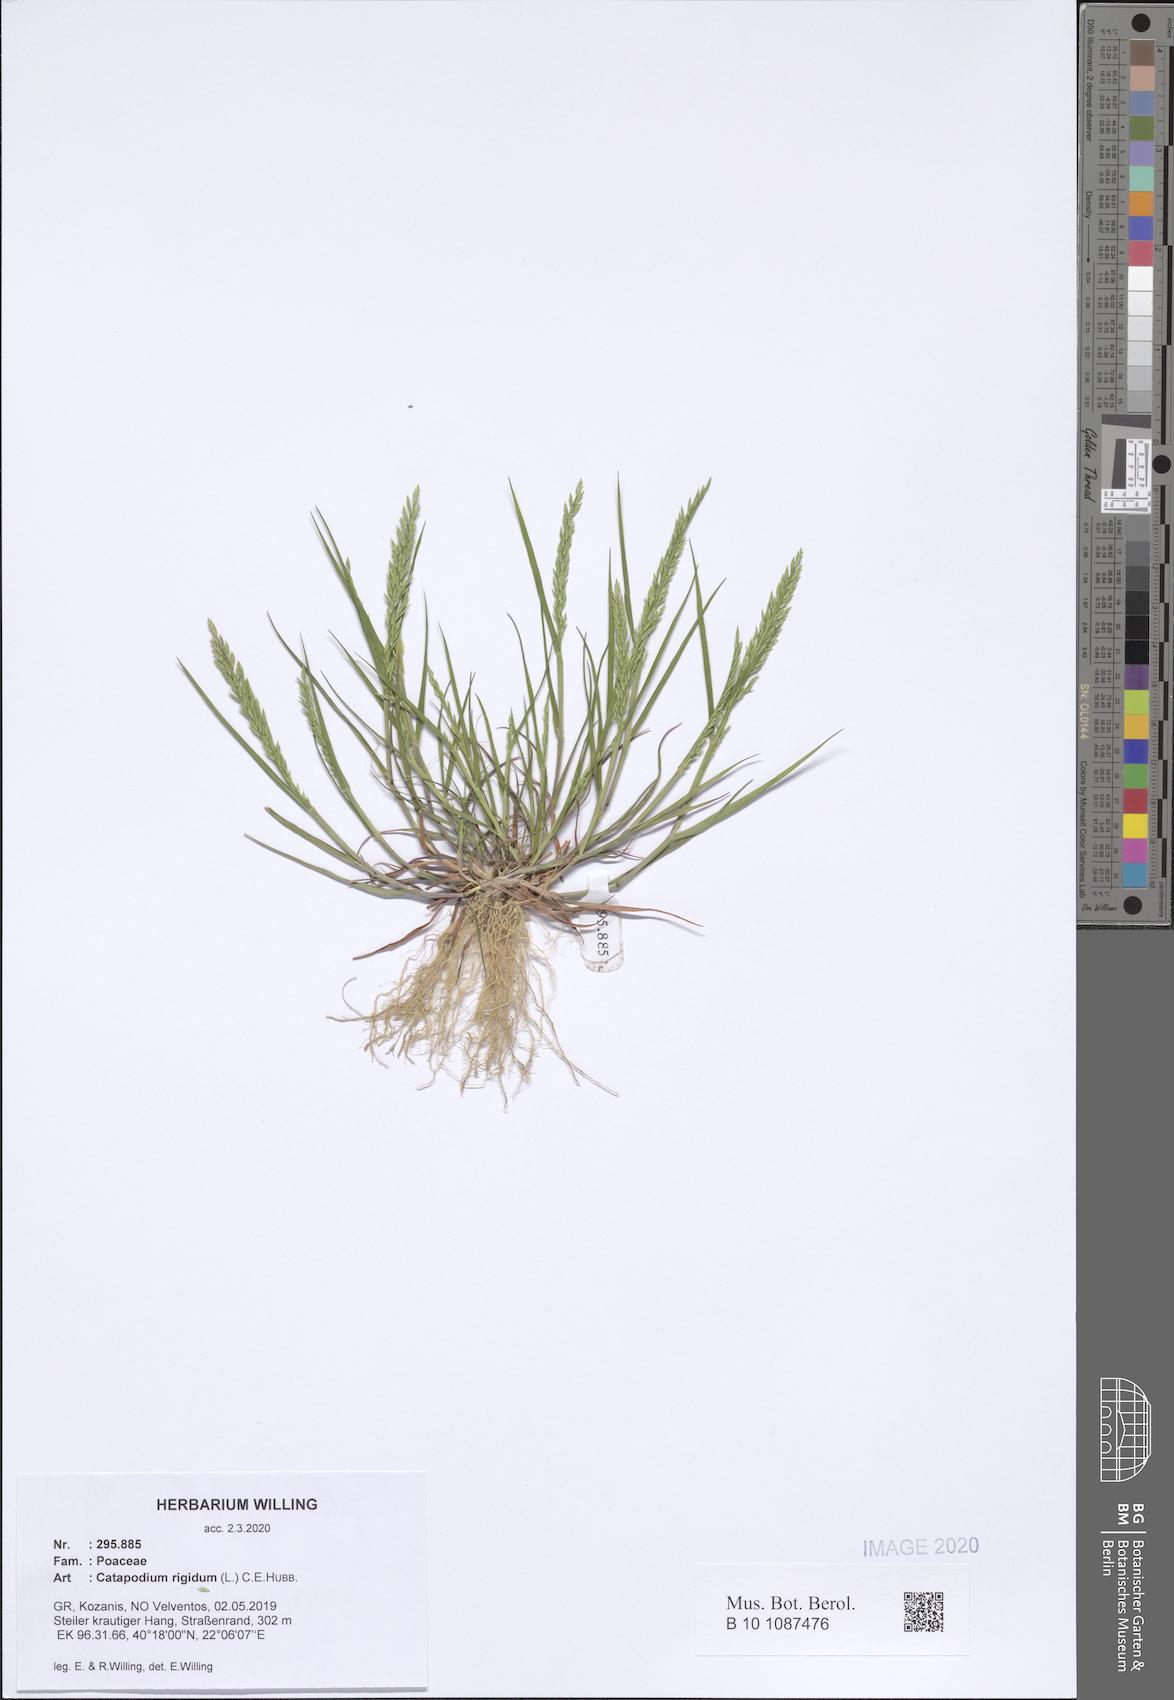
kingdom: Plantae
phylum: Tracheophyta
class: Liliopsida
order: Poales
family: Poaceae
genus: Catapodium
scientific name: Catapodium rigidum
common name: Fern-grass
